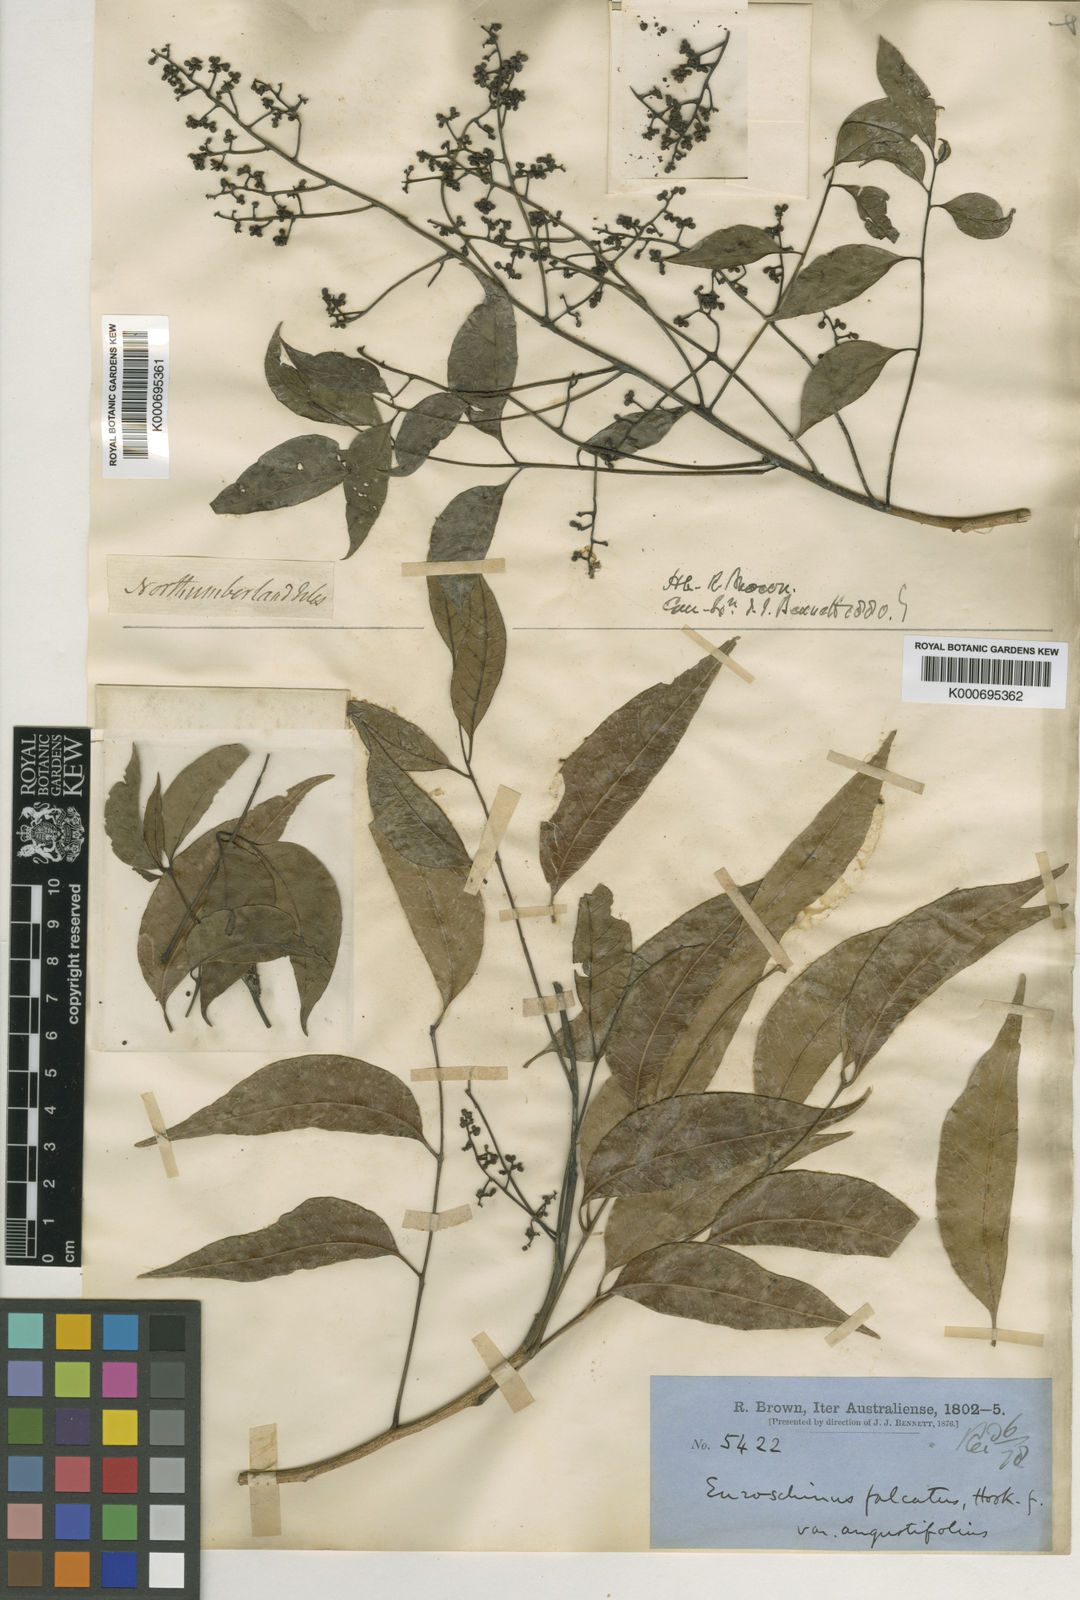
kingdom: Plantae
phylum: Tracheophyta
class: Magnoliopsida
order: Sapindales
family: Anacardiaceae
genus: Euroschinus
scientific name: Euroschinus falcatus
